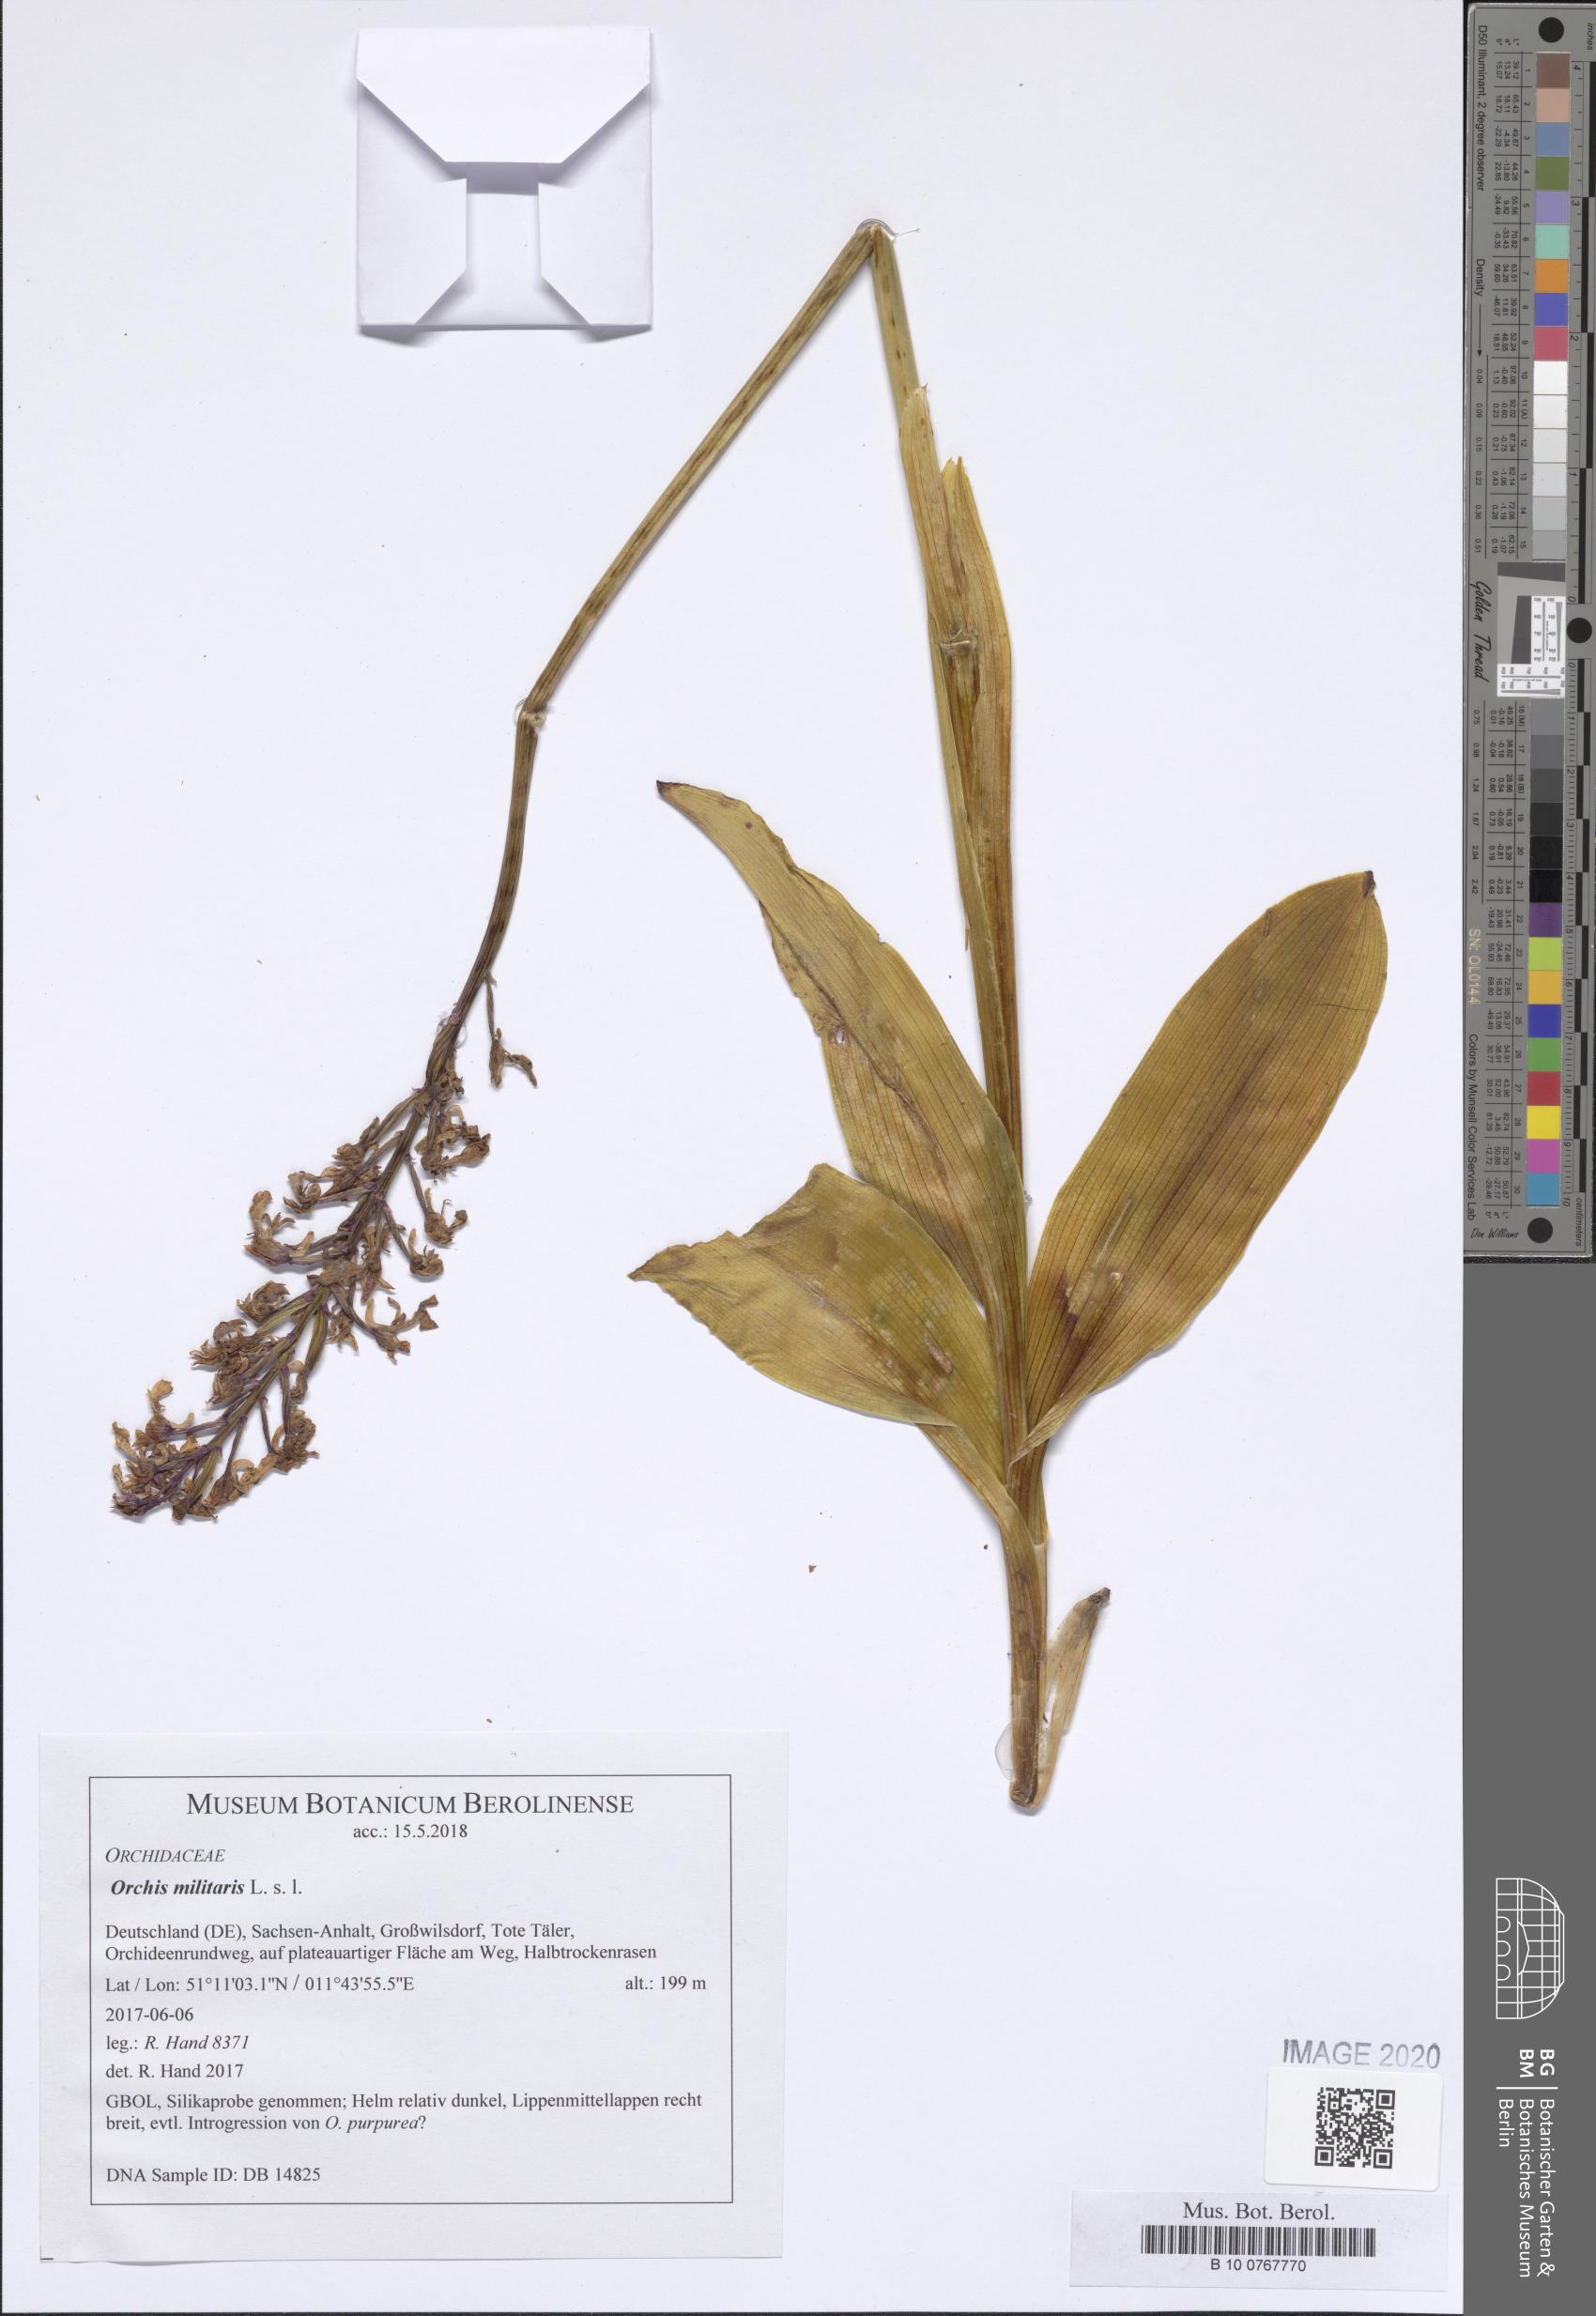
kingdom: Plantae
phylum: Tracheophyta
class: Liliopsida
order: Asparagales
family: Orchidaceae
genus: Orchis
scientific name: Orchis militaris
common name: Military orchid
